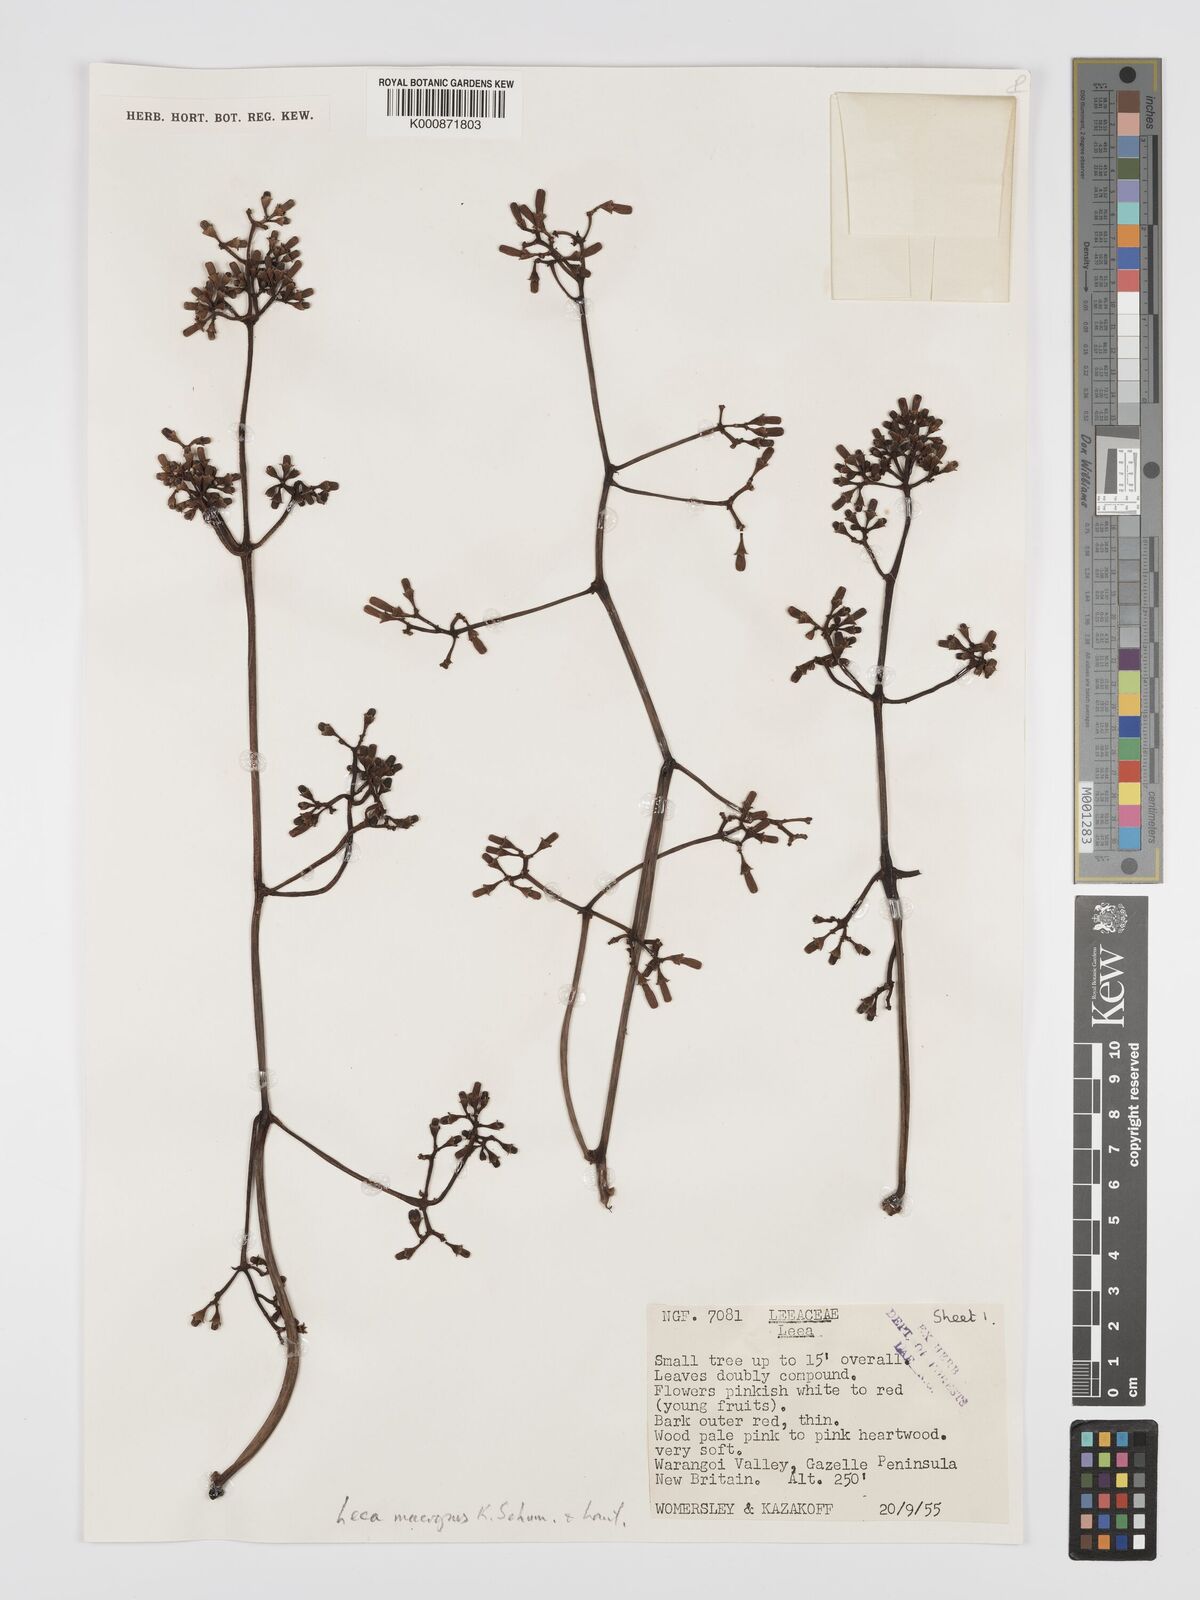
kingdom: Plantae
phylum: Tracheophyta
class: Magnoliopsida
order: Vitales
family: Vitaceae
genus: Leea
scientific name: Leea
